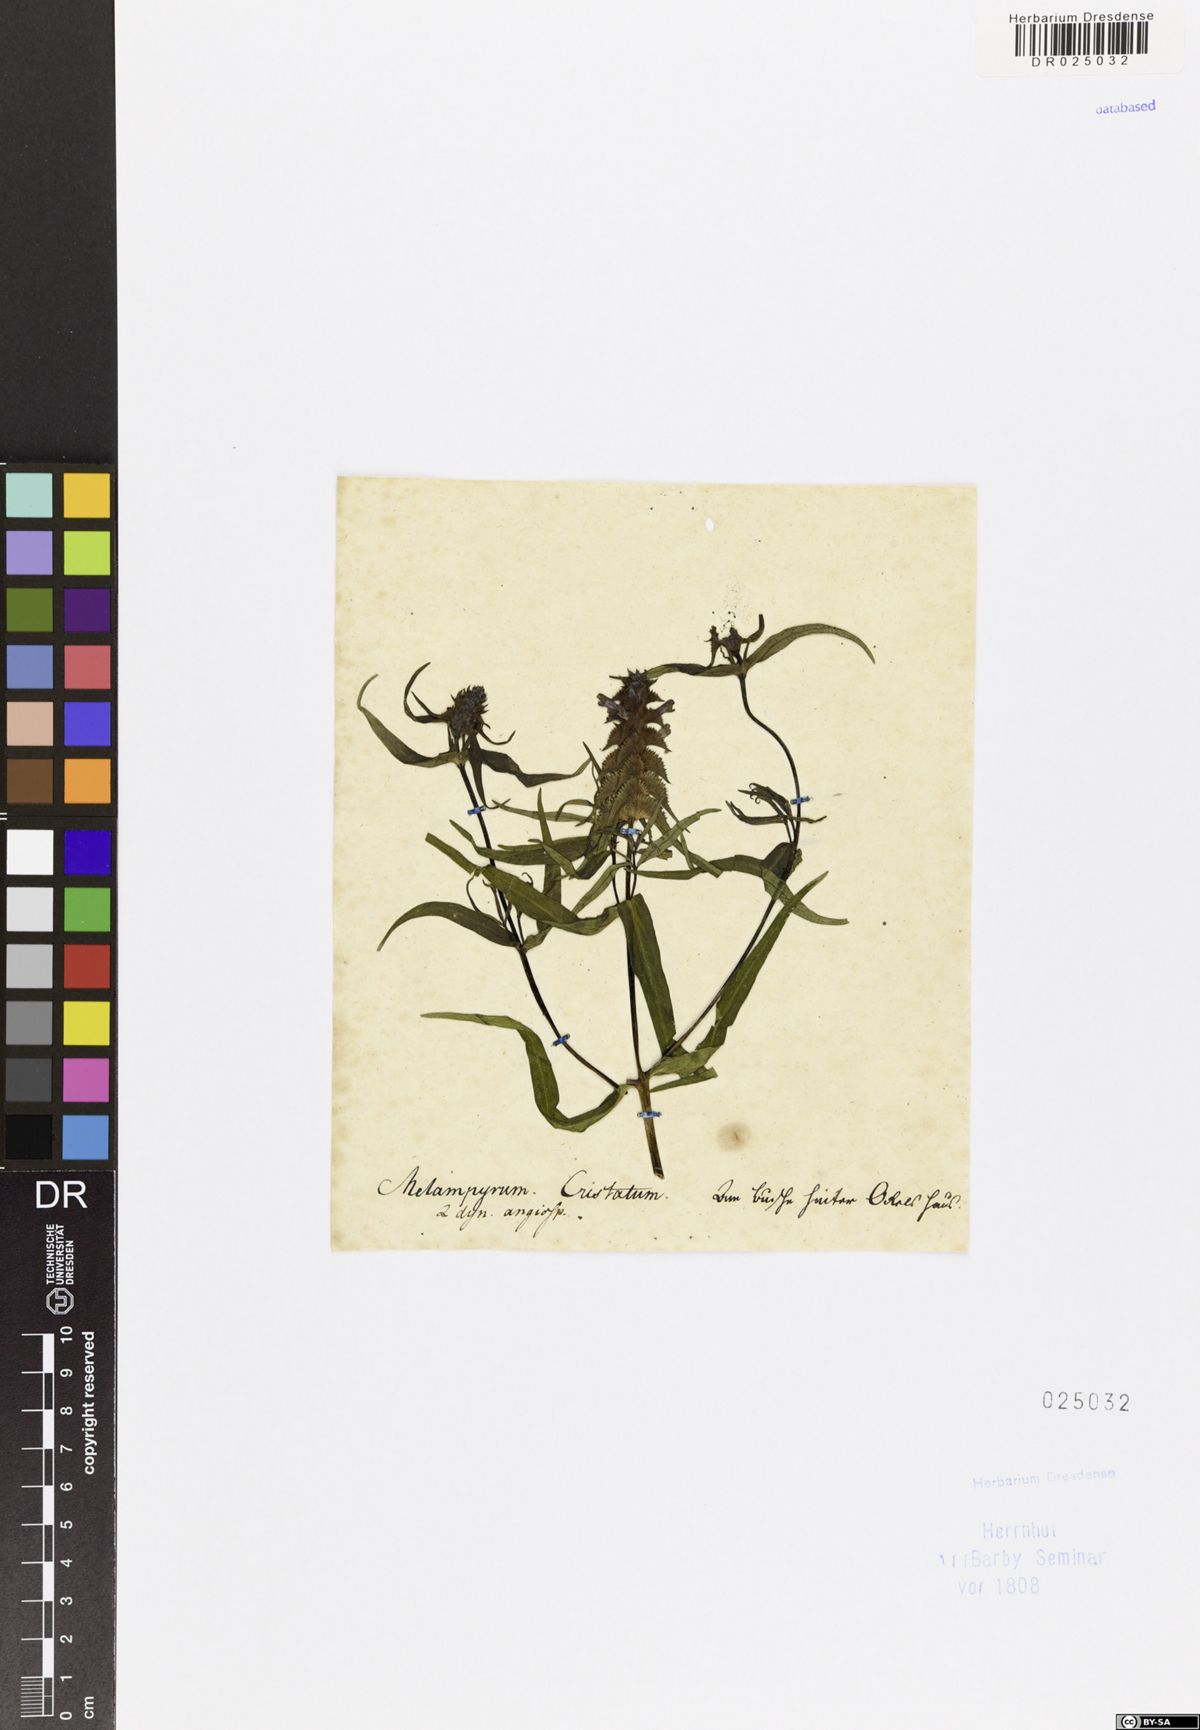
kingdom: Plantae
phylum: Tracheophyta
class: Magnoliopsida
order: Lamiales
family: Orobanchaceae
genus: Melampyrum
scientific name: Melampyrum cristatum
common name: Crested cow-wheat
